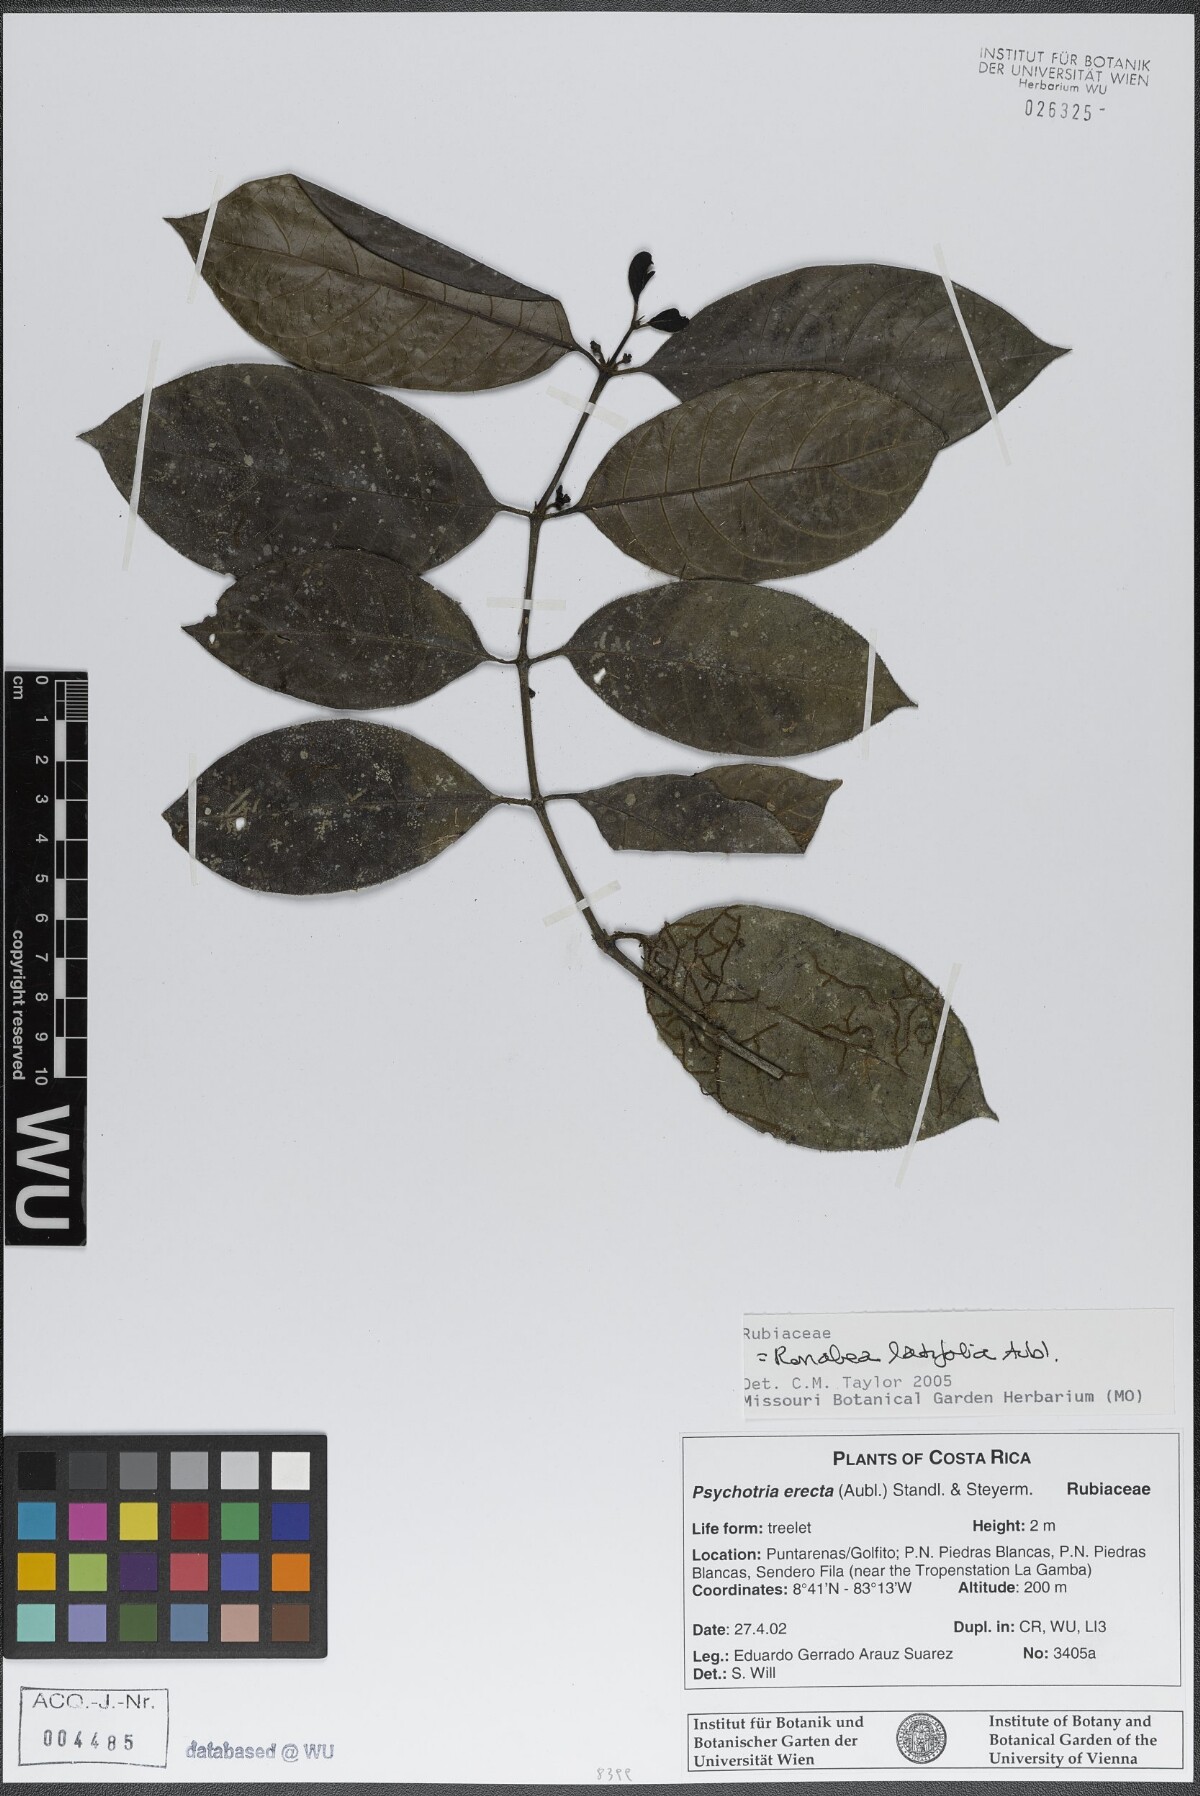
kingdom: Plantae
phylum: Tracheophyta
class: Magnoliopsida
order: Gentianales
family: Rubiaceae
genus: Ronabea
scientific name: Ronabea latifolia
